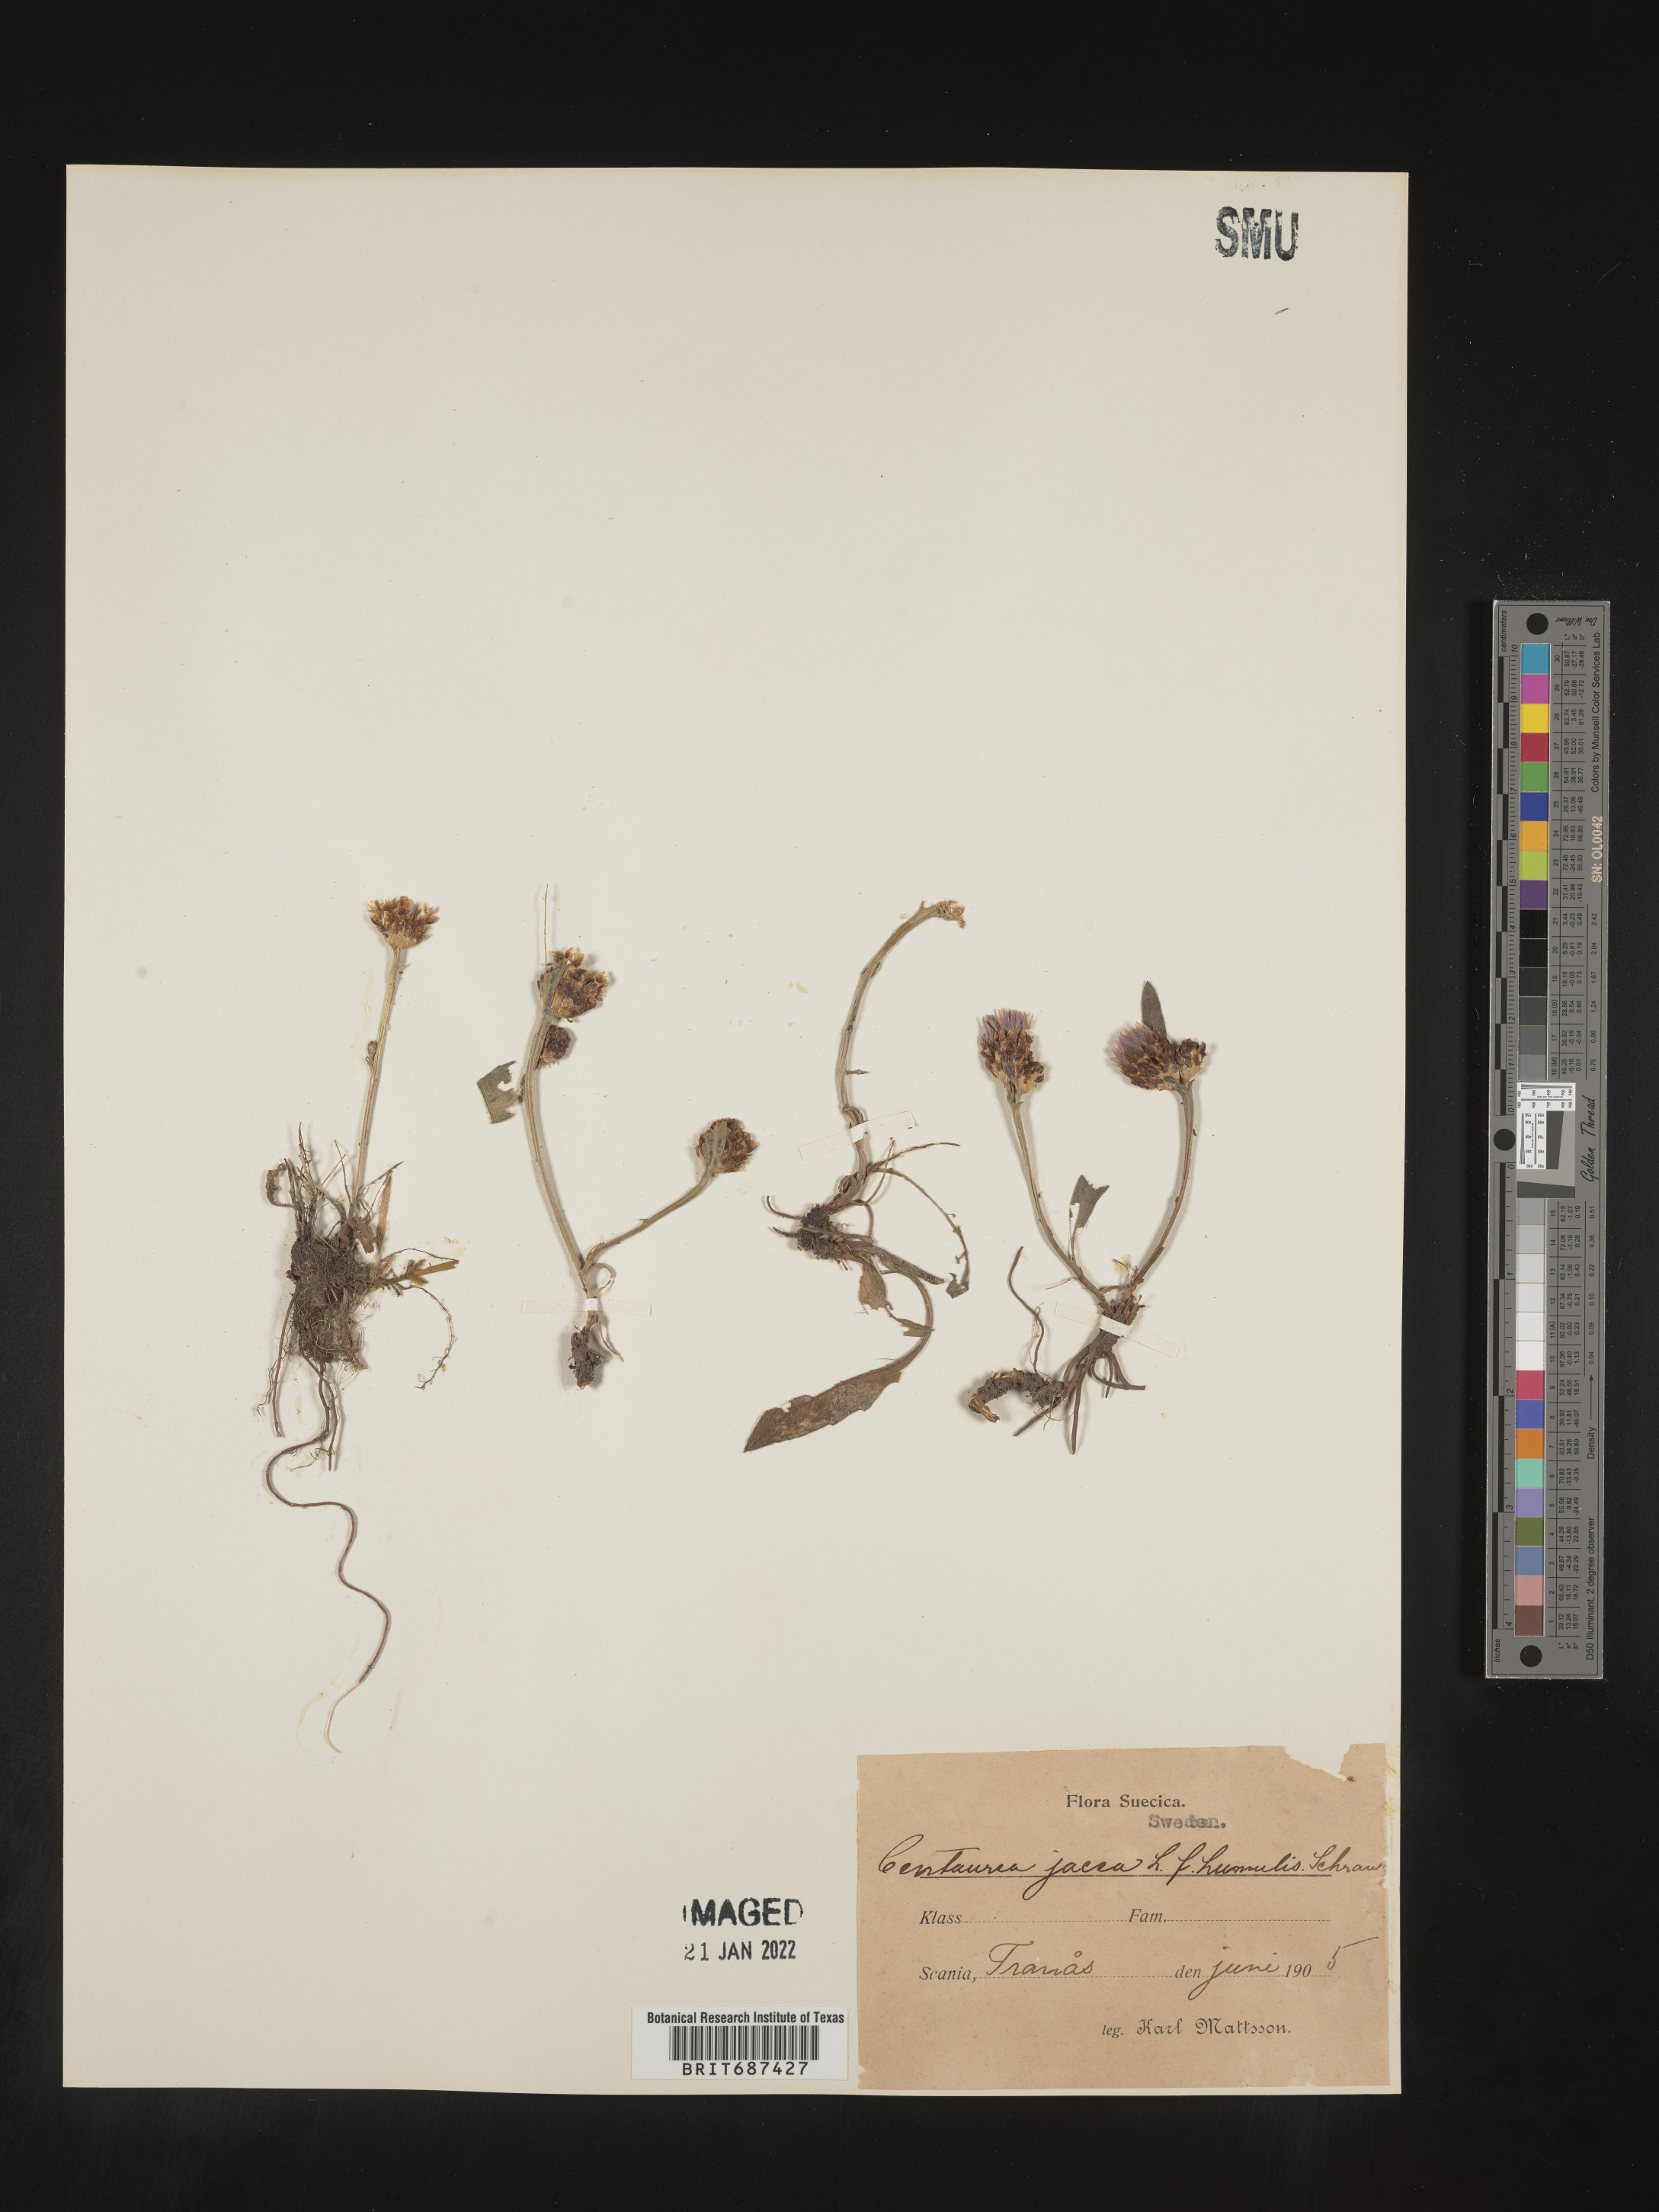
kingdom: Plantae
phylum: Tracheophyta
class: Magnoliopsida
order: Asterales
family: Asteraceae
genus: Centaurea
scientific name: Centaurea jacea
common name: Brown knapweed
